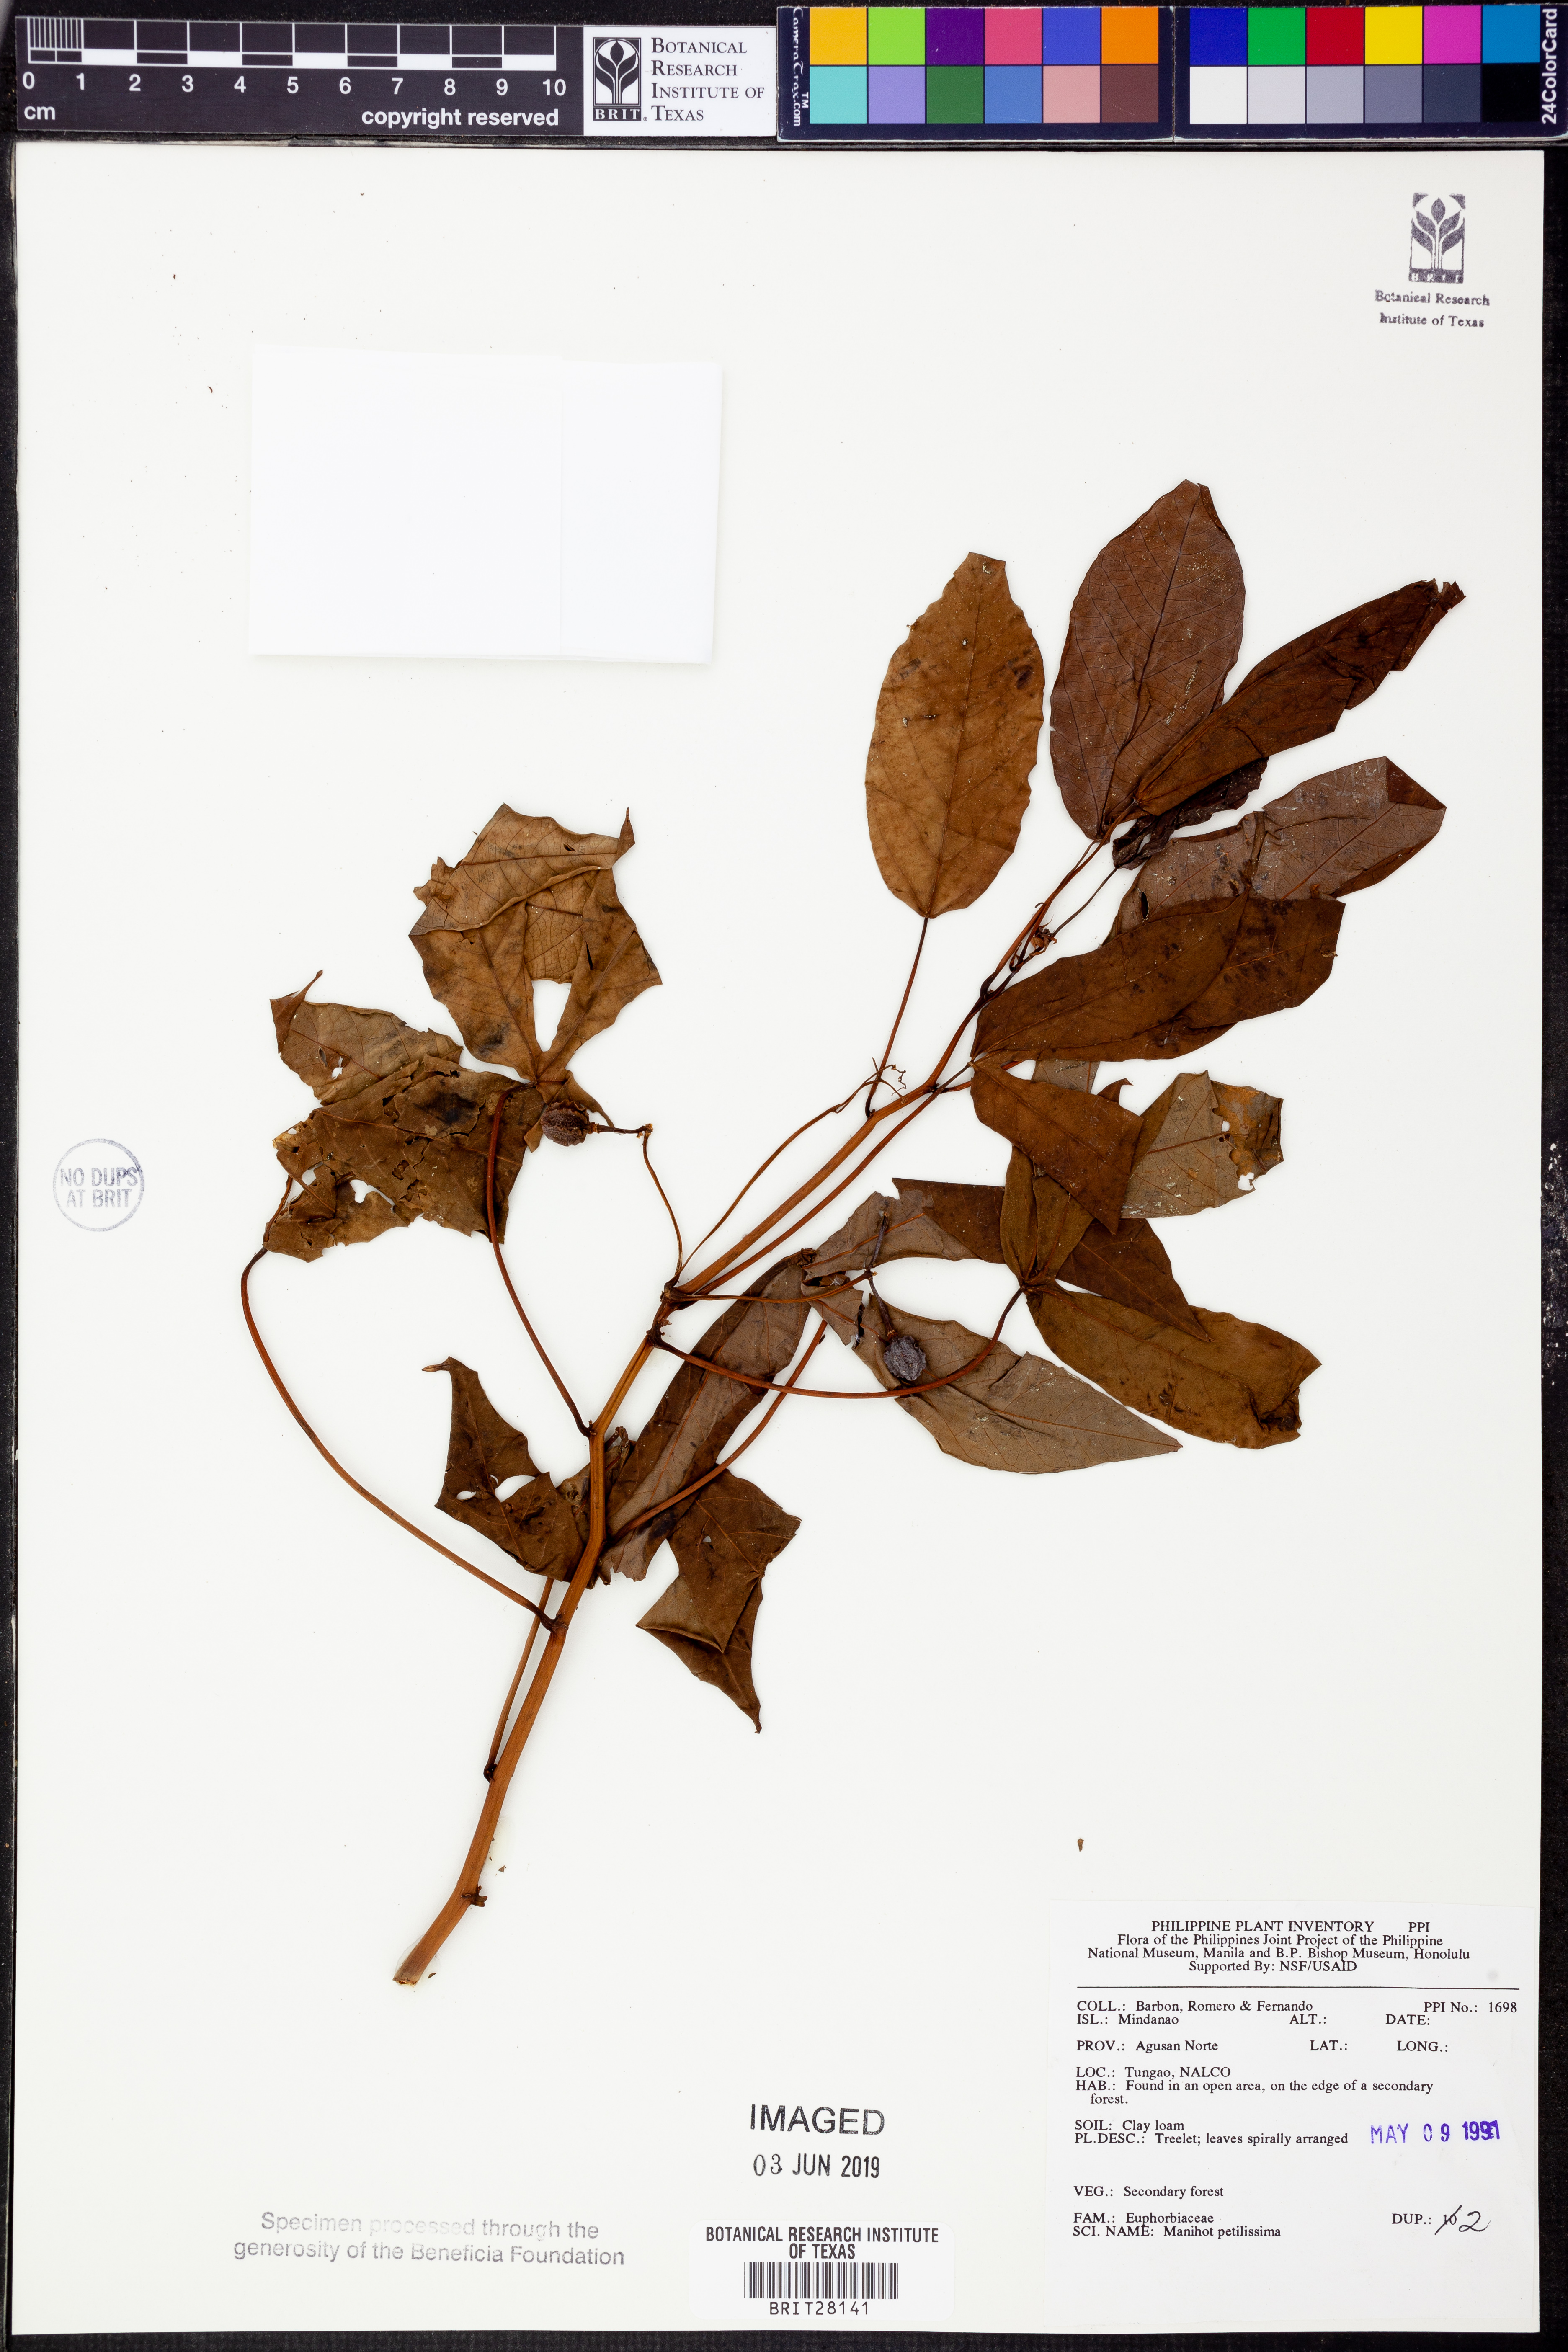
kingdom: Plantae
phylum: Tracheophyta
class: Magnoliopsida
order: Malpighiales
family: Euphorbiaceae
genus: Manihot
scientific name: Manihot
